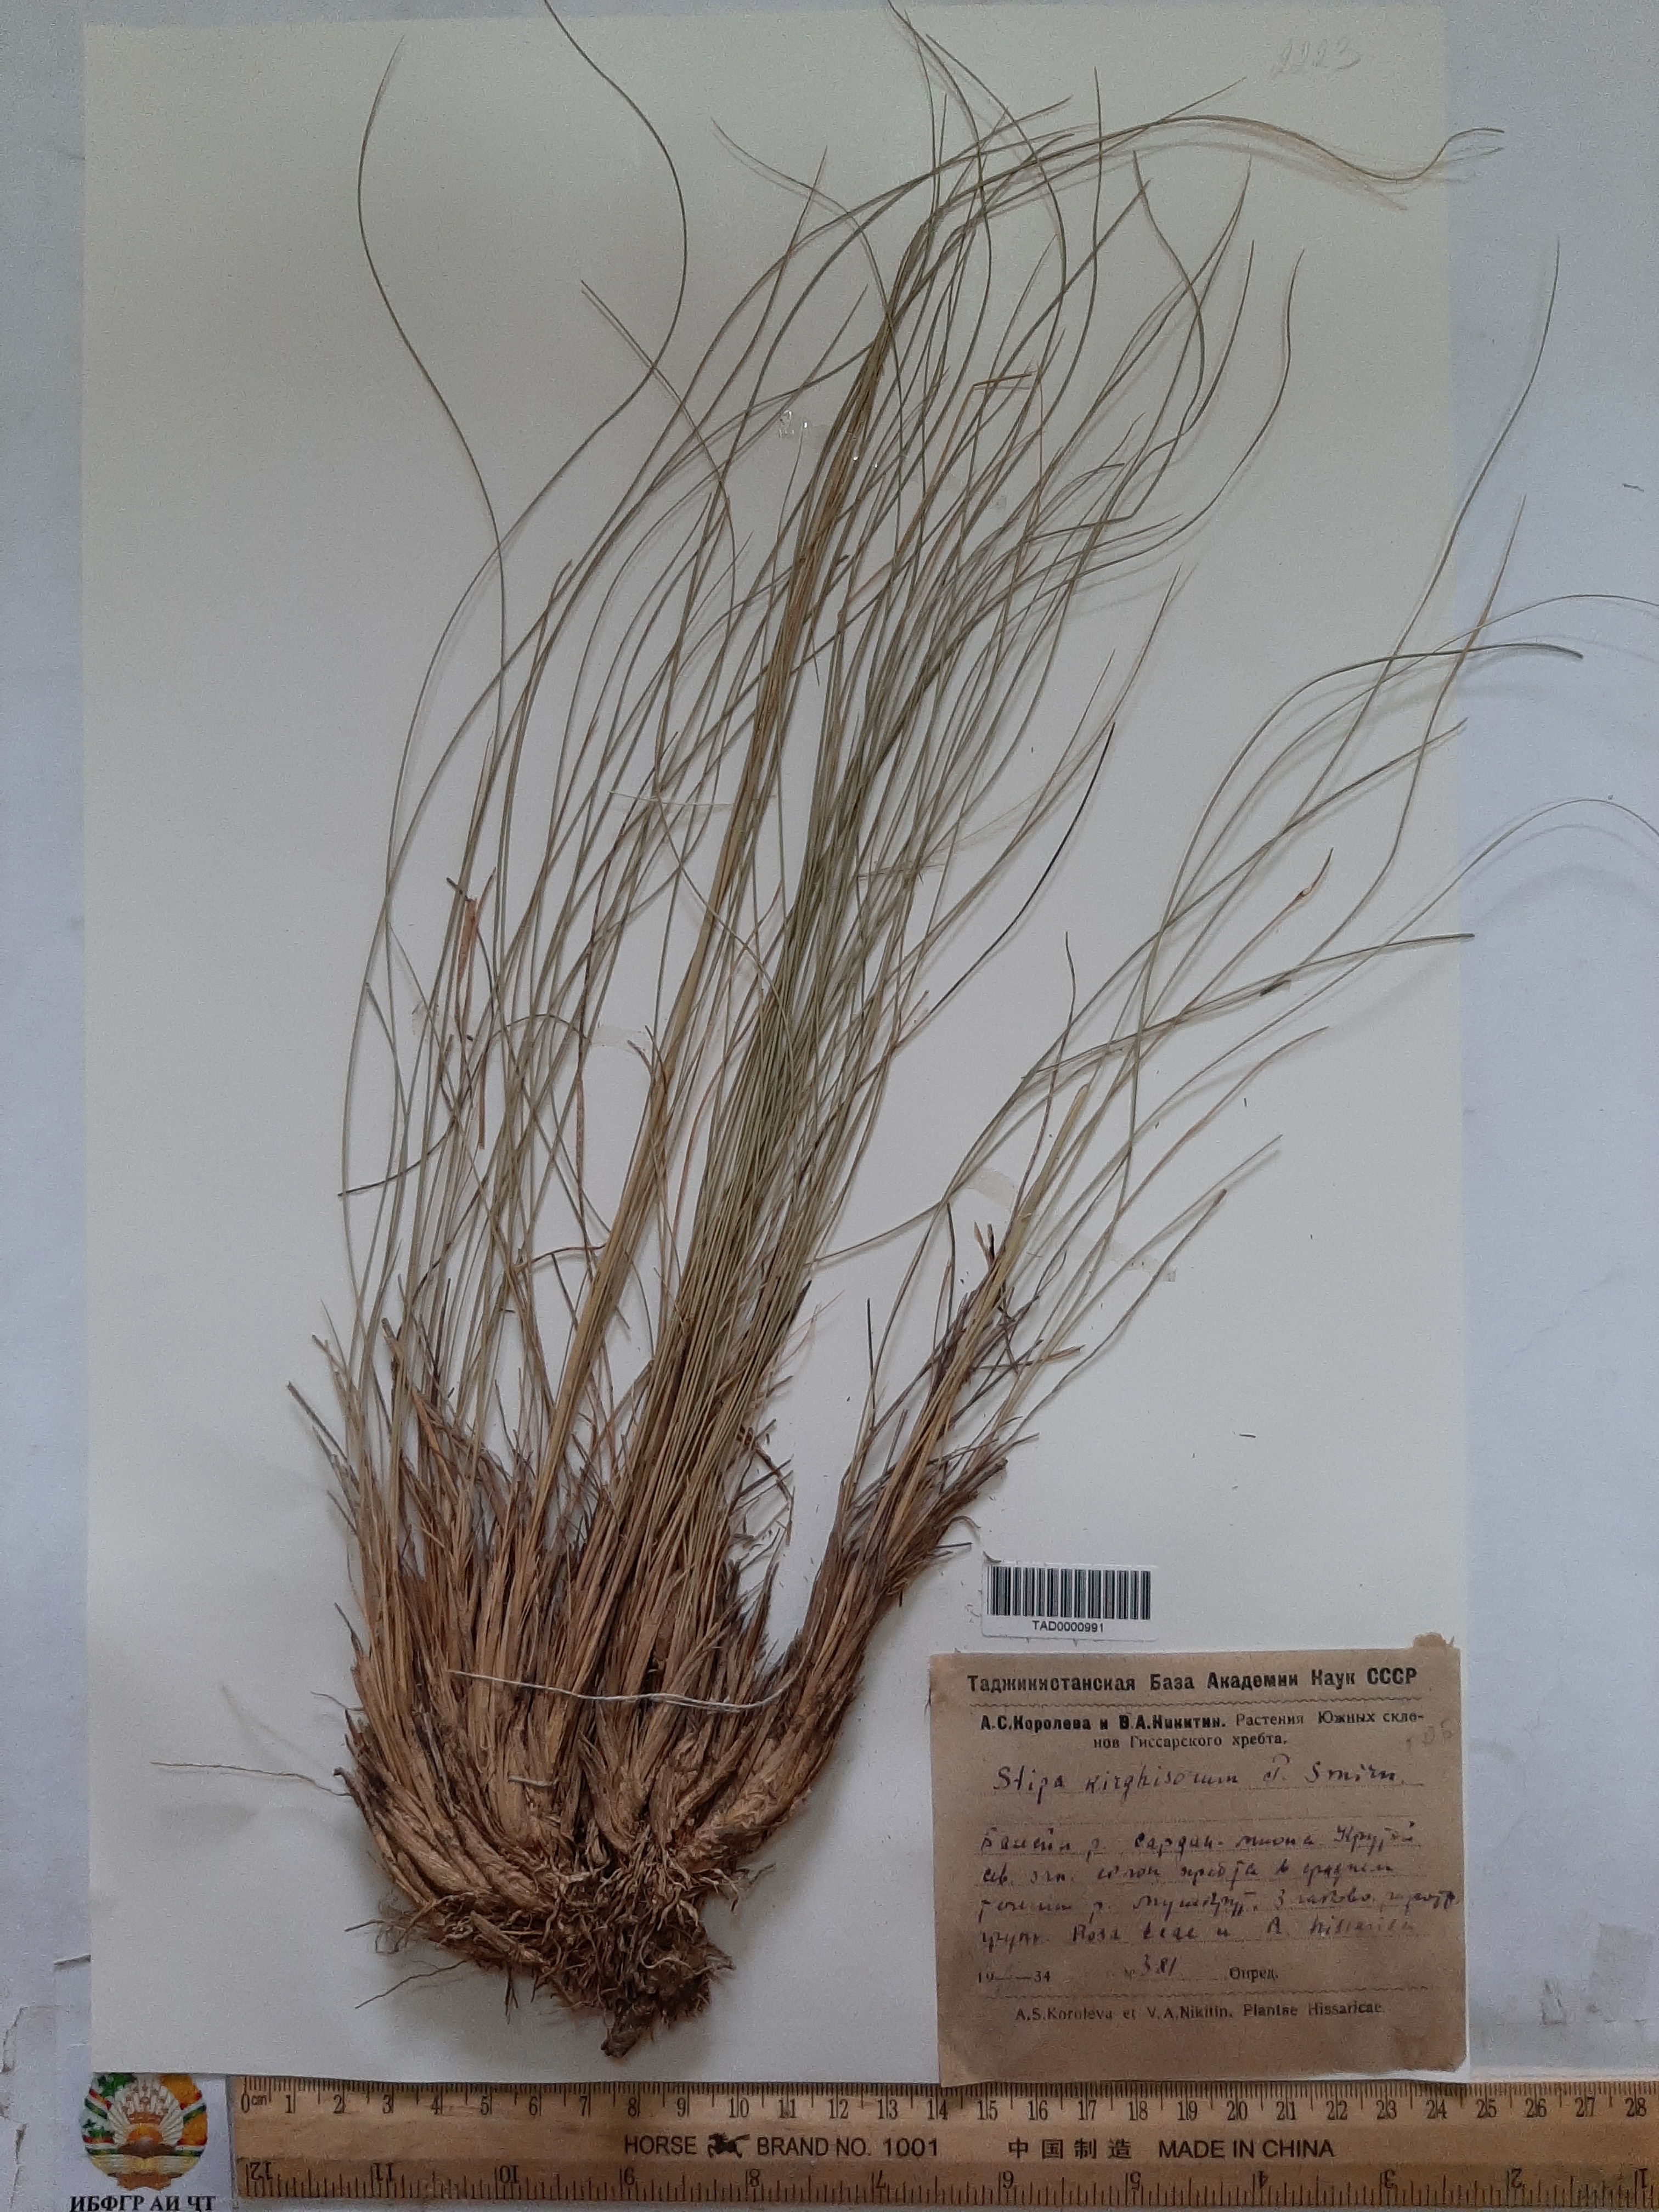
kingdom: Plantae
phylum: Tracheophyta
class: Liliopsida
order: Poales
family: Poaceae
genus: Stipa
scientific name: Stipa kirghisorum
